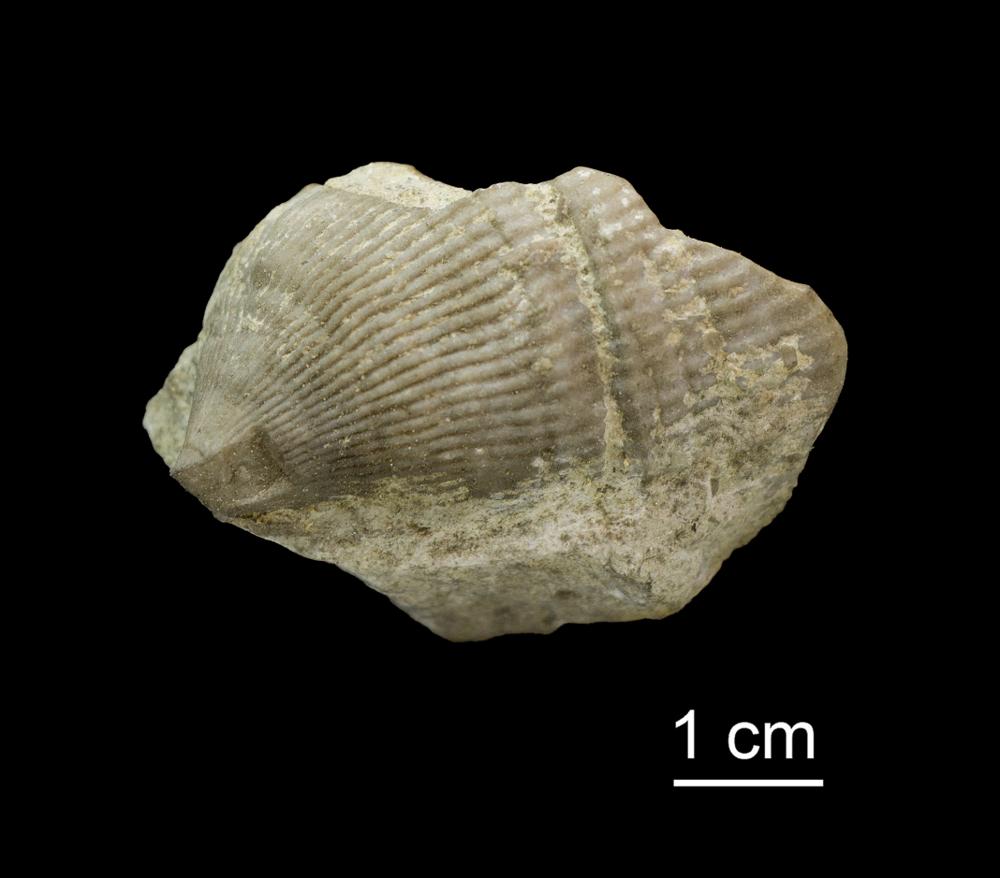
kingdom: Animalia
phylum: Cnidaria
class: Anthozoa
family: Streptelasmatidae
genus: Streptelasma
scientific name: Streptelasma
